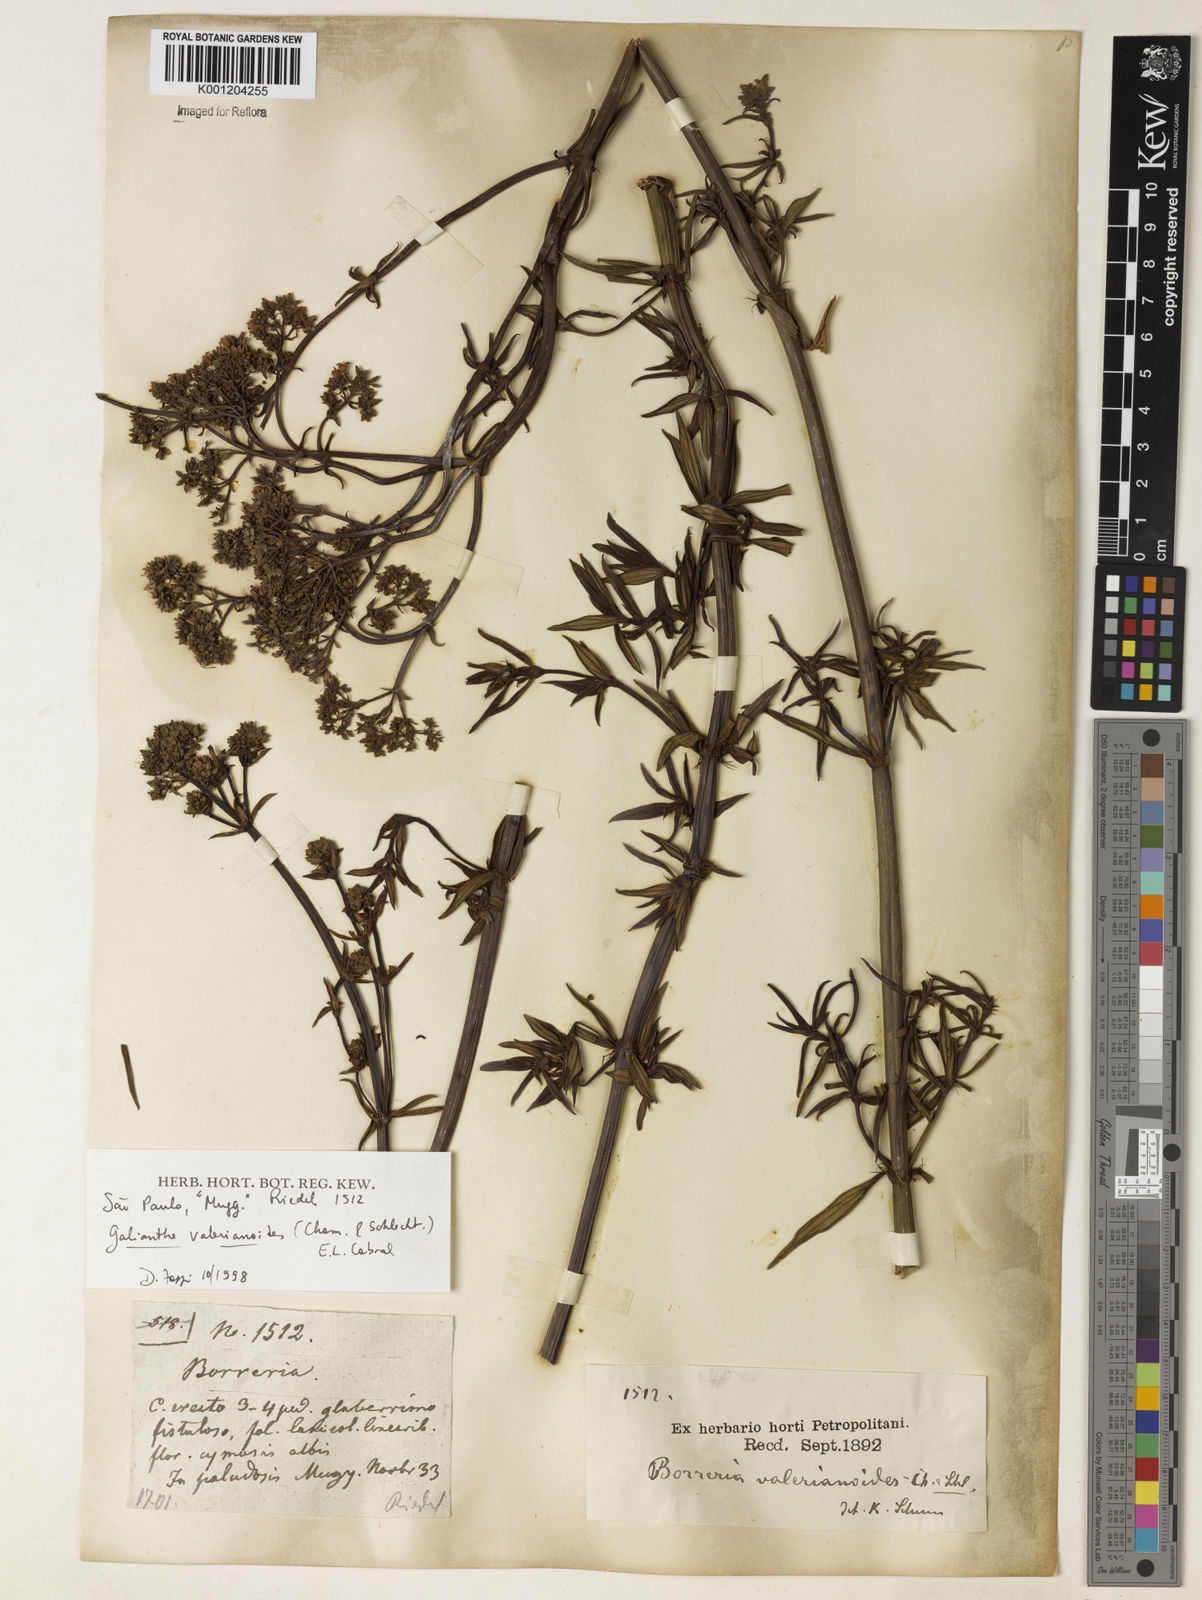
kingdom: Plantae
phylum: Tracheophyta
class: Magnoliopsida
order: Gentianales
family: Rubiaceae
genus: Galianthe
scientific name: Galianthe valerianoides
